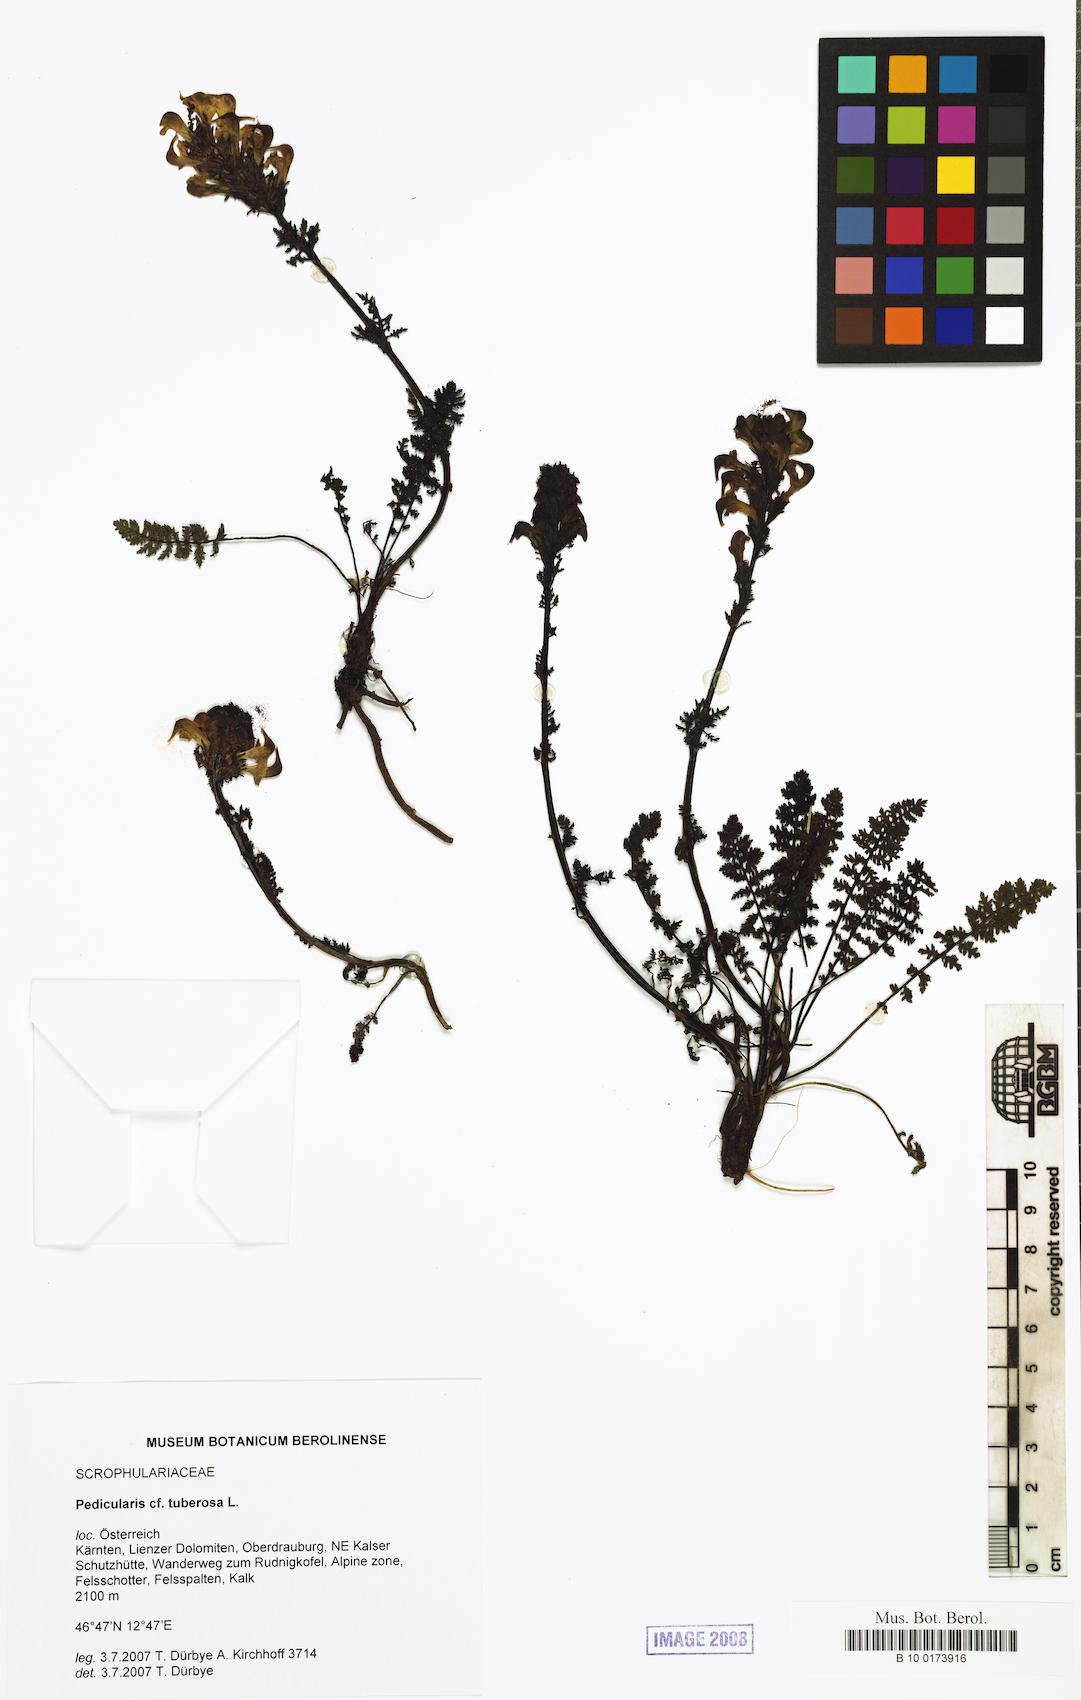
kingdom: Plantae
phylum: Tracheophyta
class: Magnoliopsida
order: Lamiales
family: Orobanchaceae
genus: Pedicularis
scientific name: Pedicularis tuberosa
